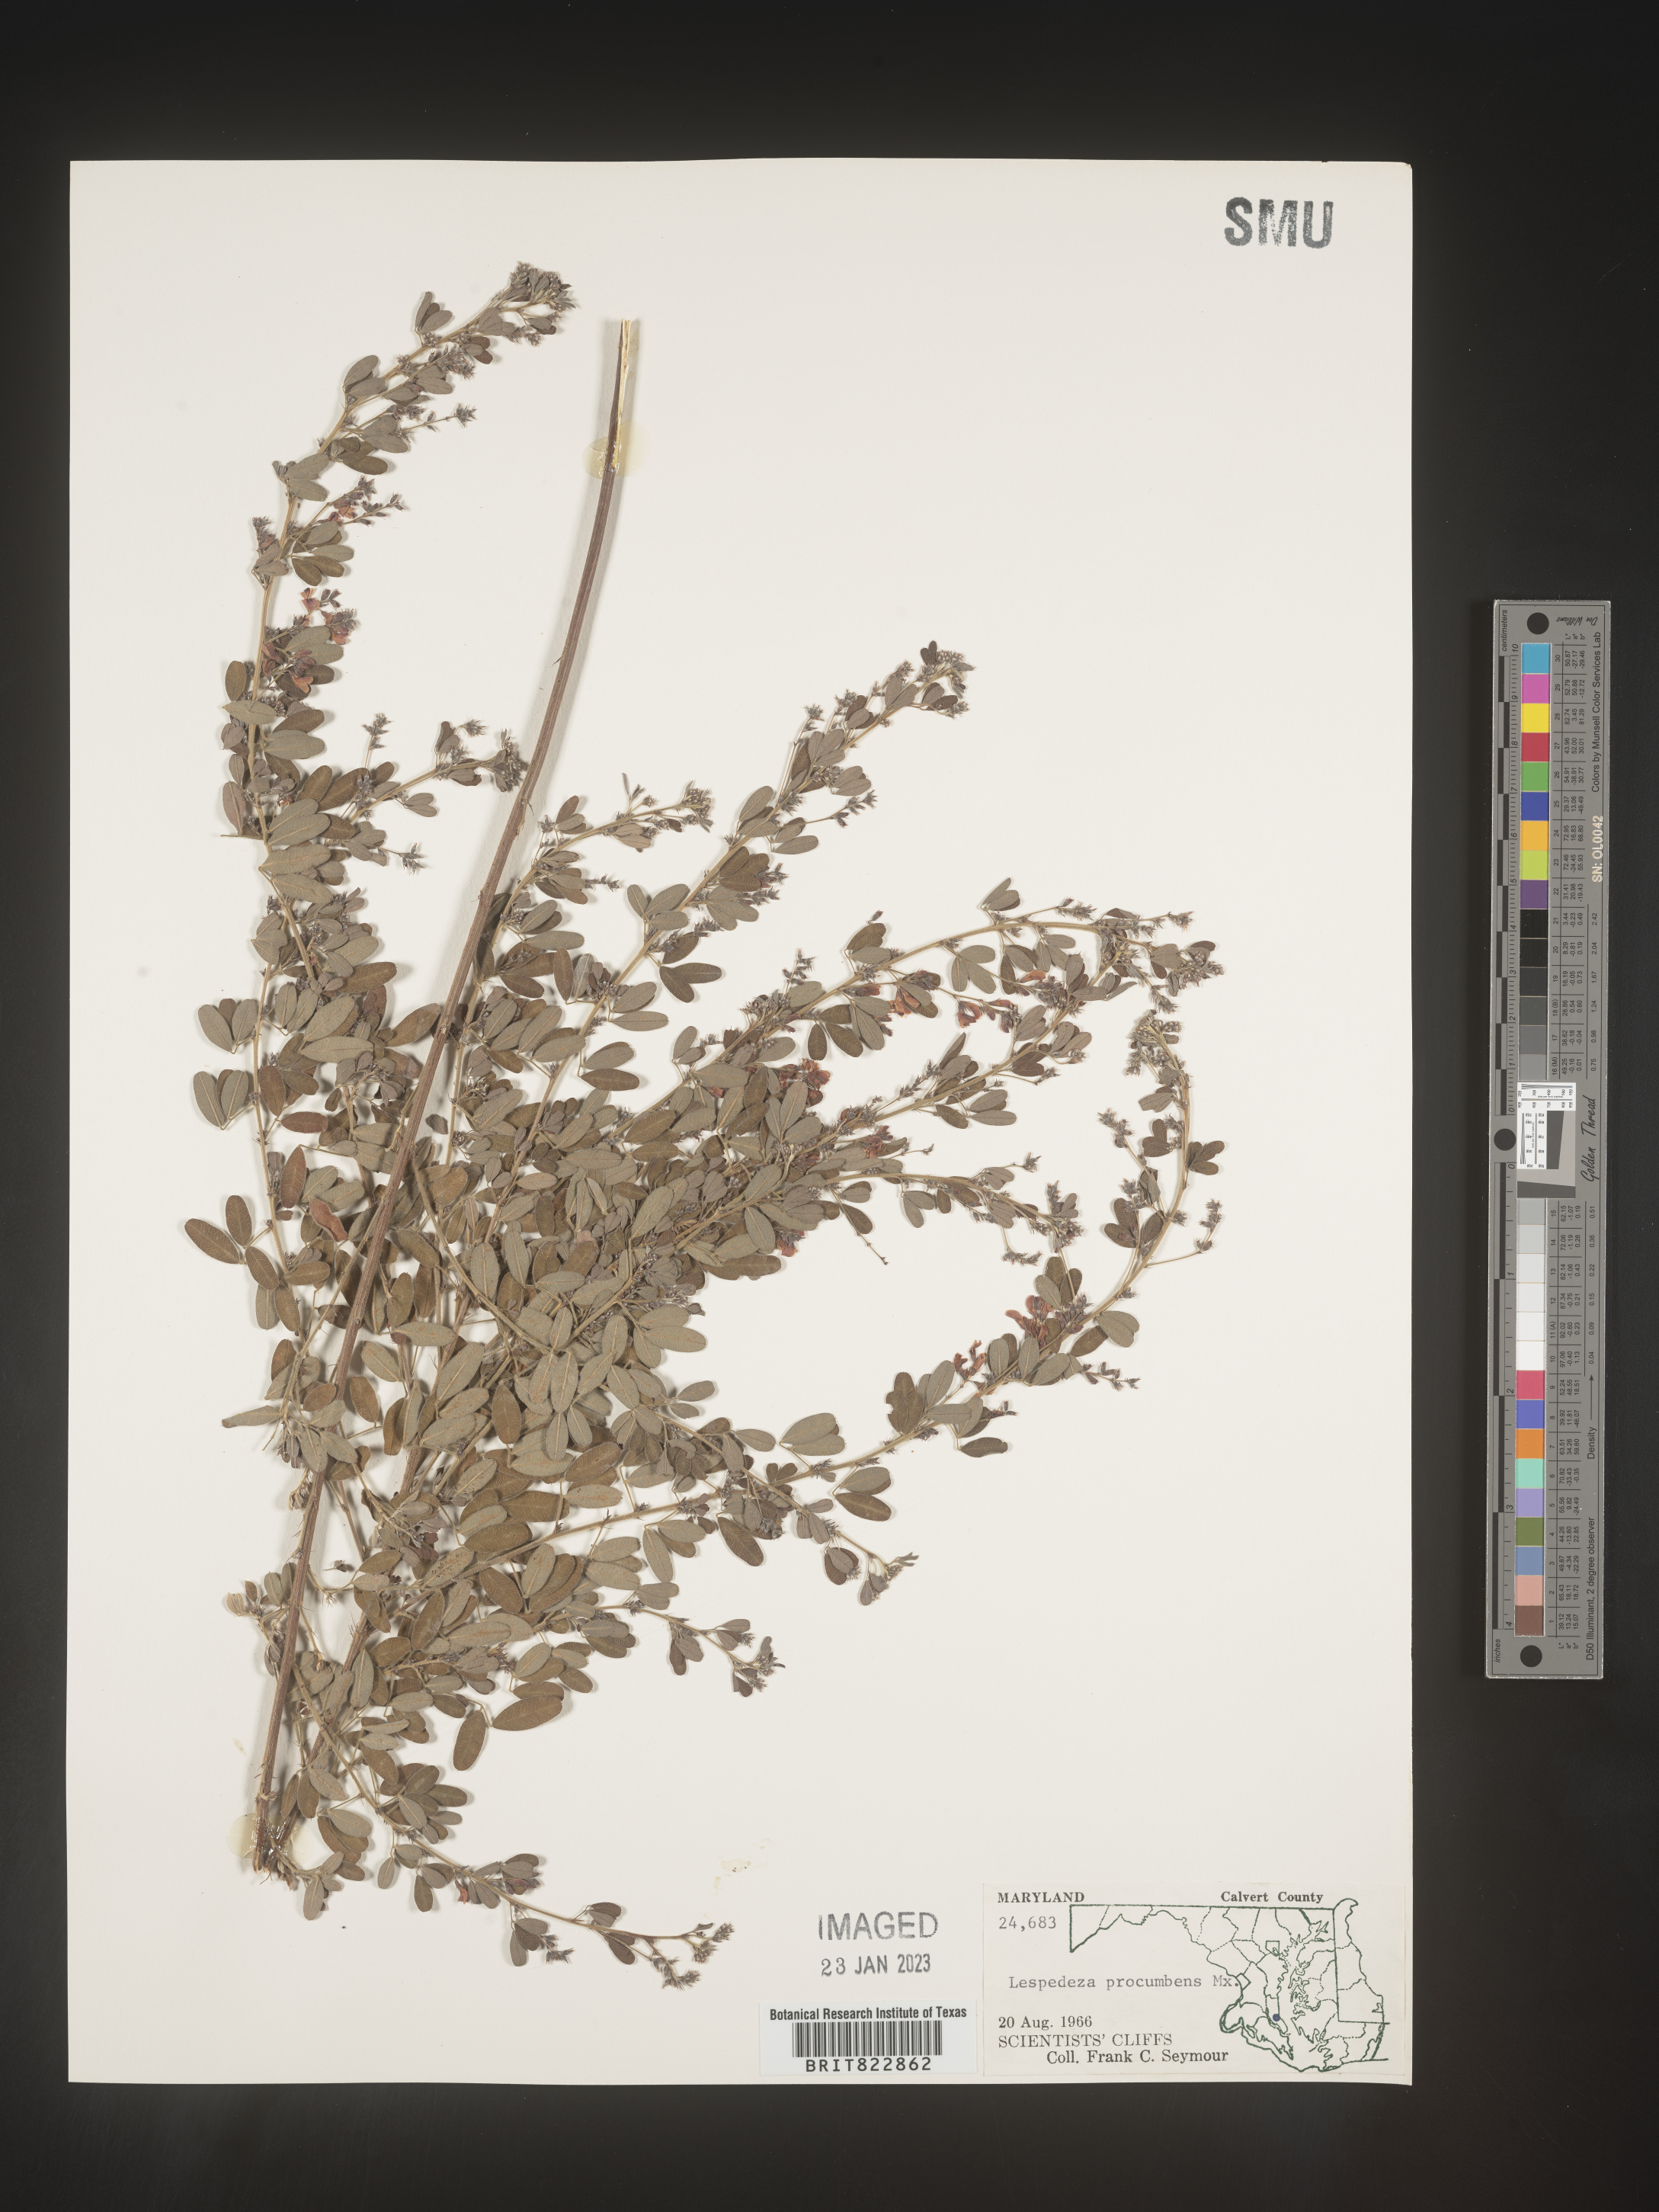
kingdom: Plantae
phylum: Tracheophyta
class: Magnoliopsida
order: Fabales
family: Fabaceae
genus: Lespedeza
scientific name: Lespedeza procumbens
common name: Downy trailing bush-clover
